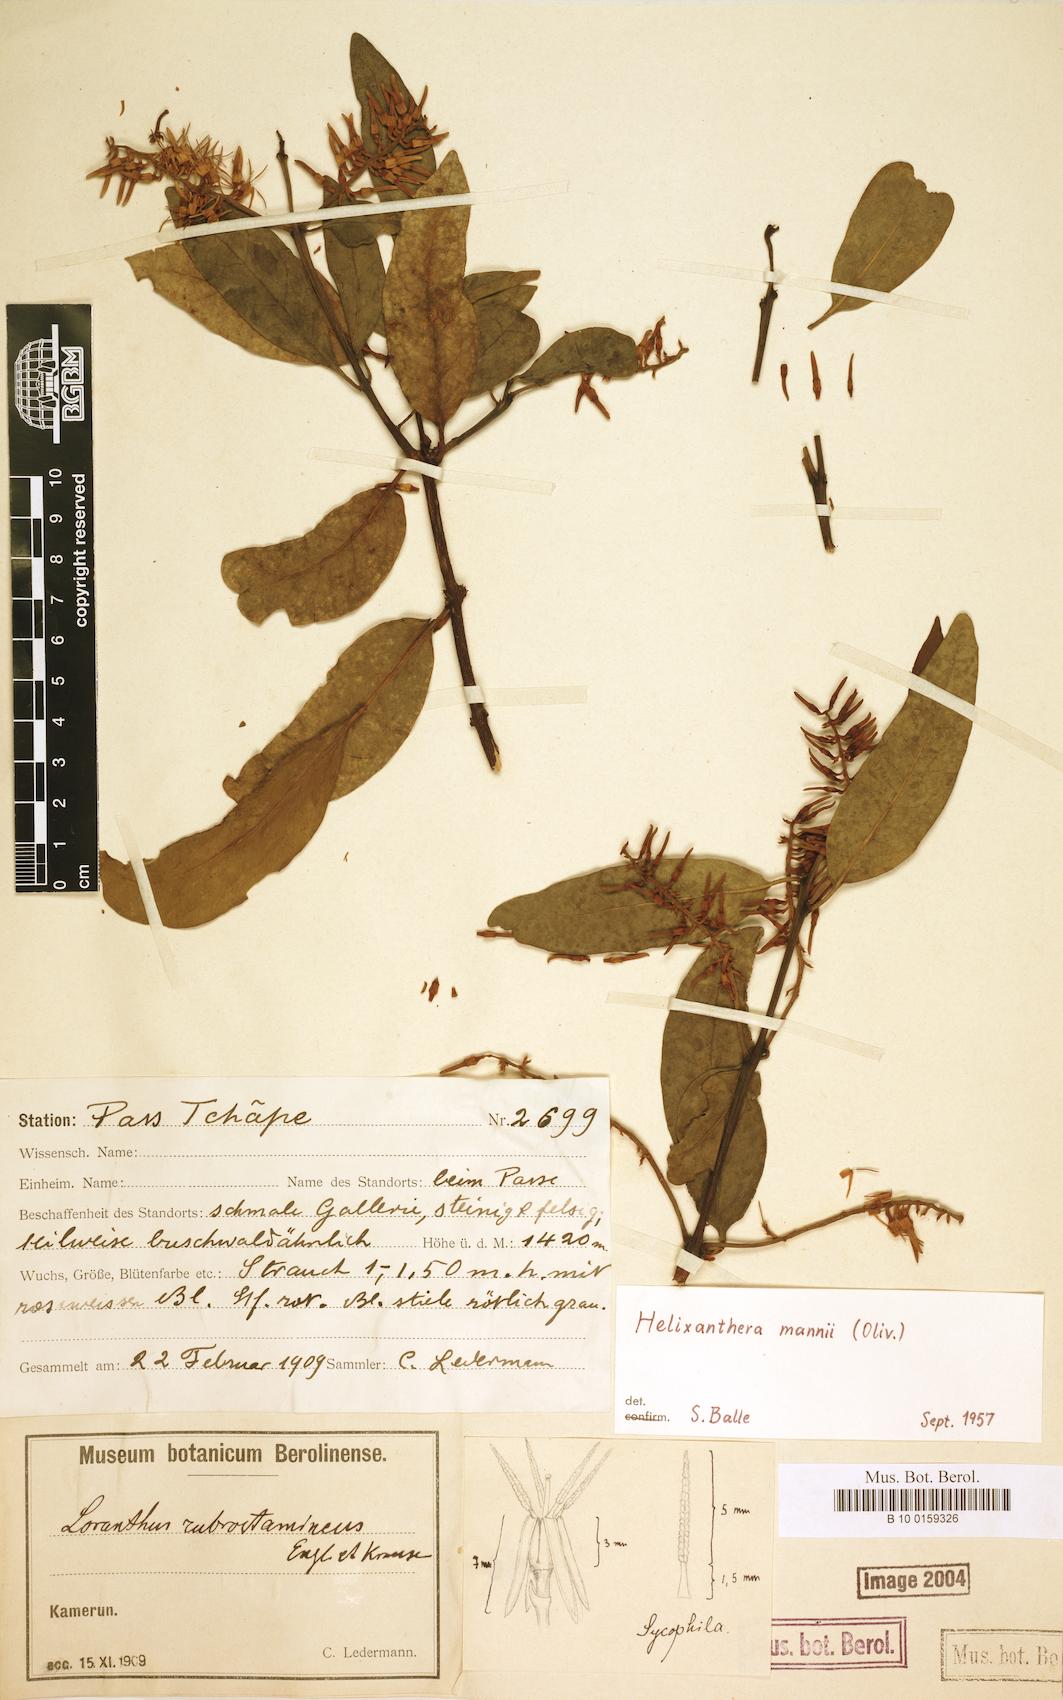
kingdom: Plantae
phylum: Tracheophyta
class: Magnoliopsida
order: Santalales
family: Loranthaceae
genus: Helixanthera
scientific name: Helixanthera mannii
